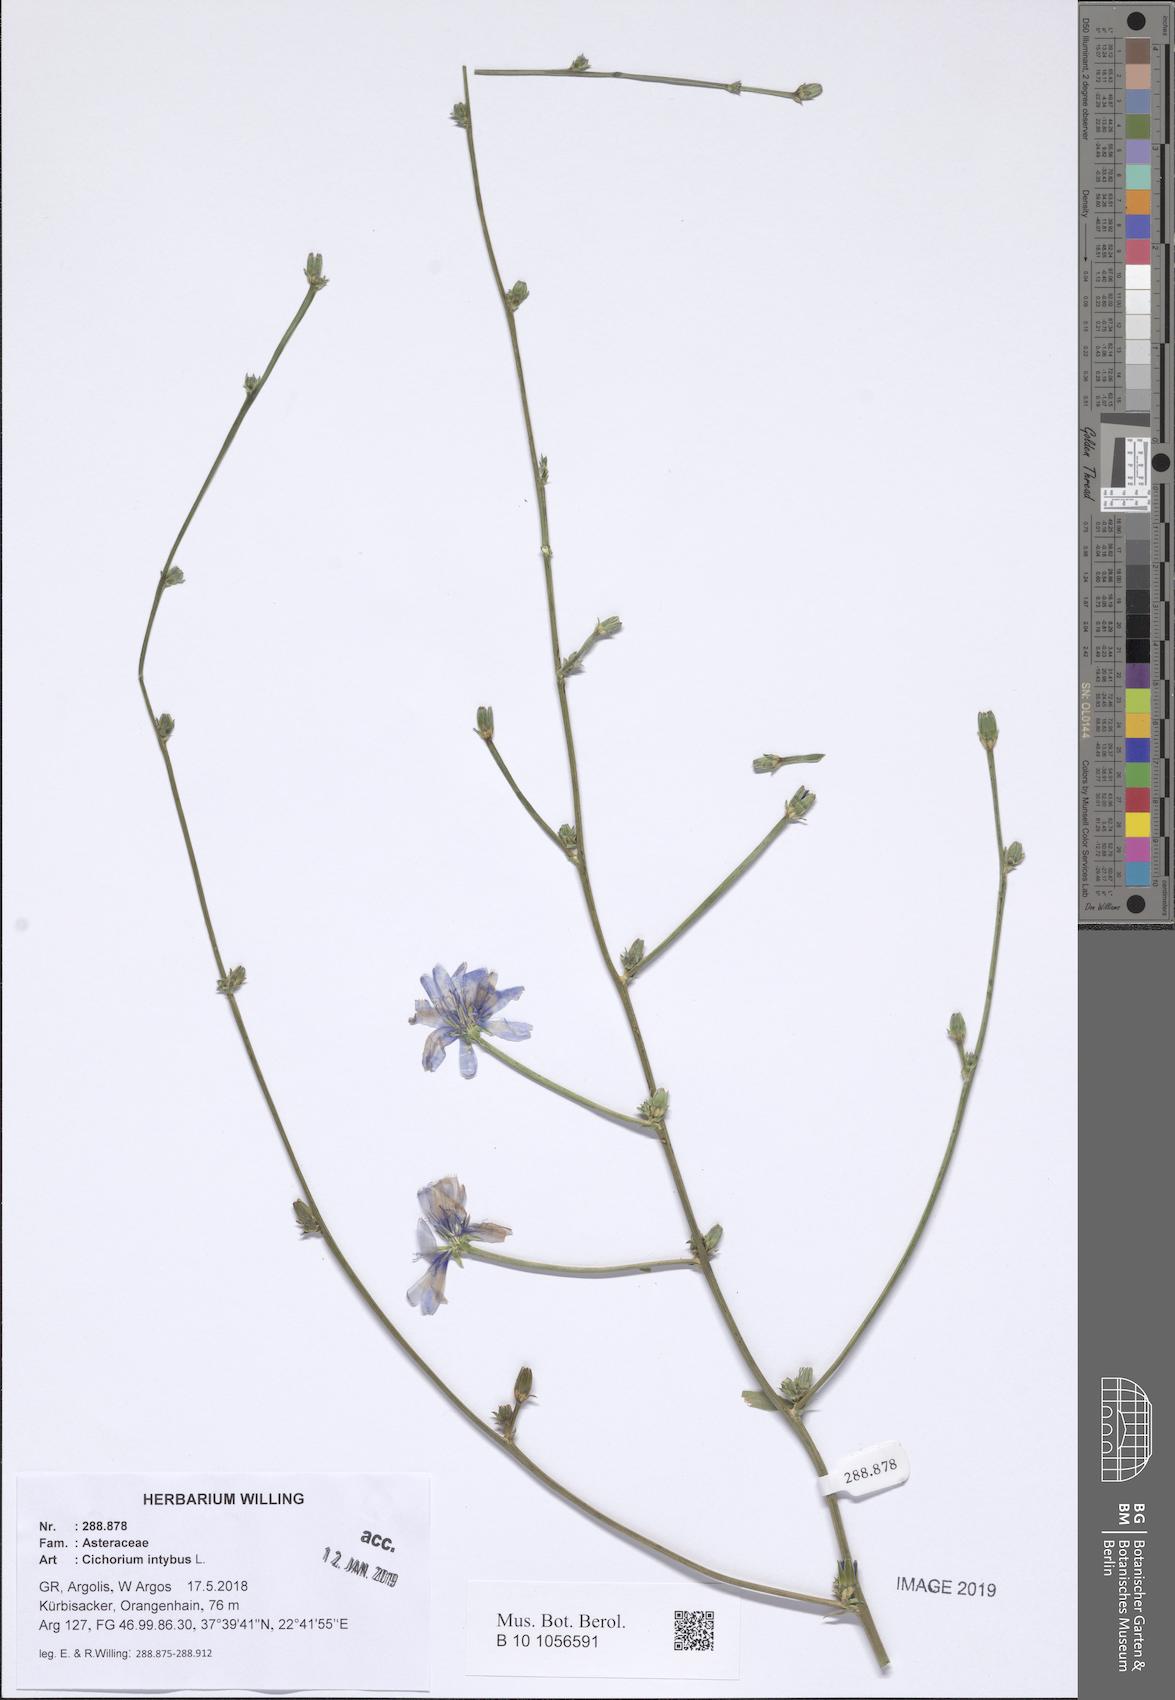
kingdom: Plantae
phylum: Tracheophyta
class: Magnoliopsida
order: Asterales
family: Asteraceae
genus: Cichorium
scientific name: Cichorium intybus
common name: Chicory
